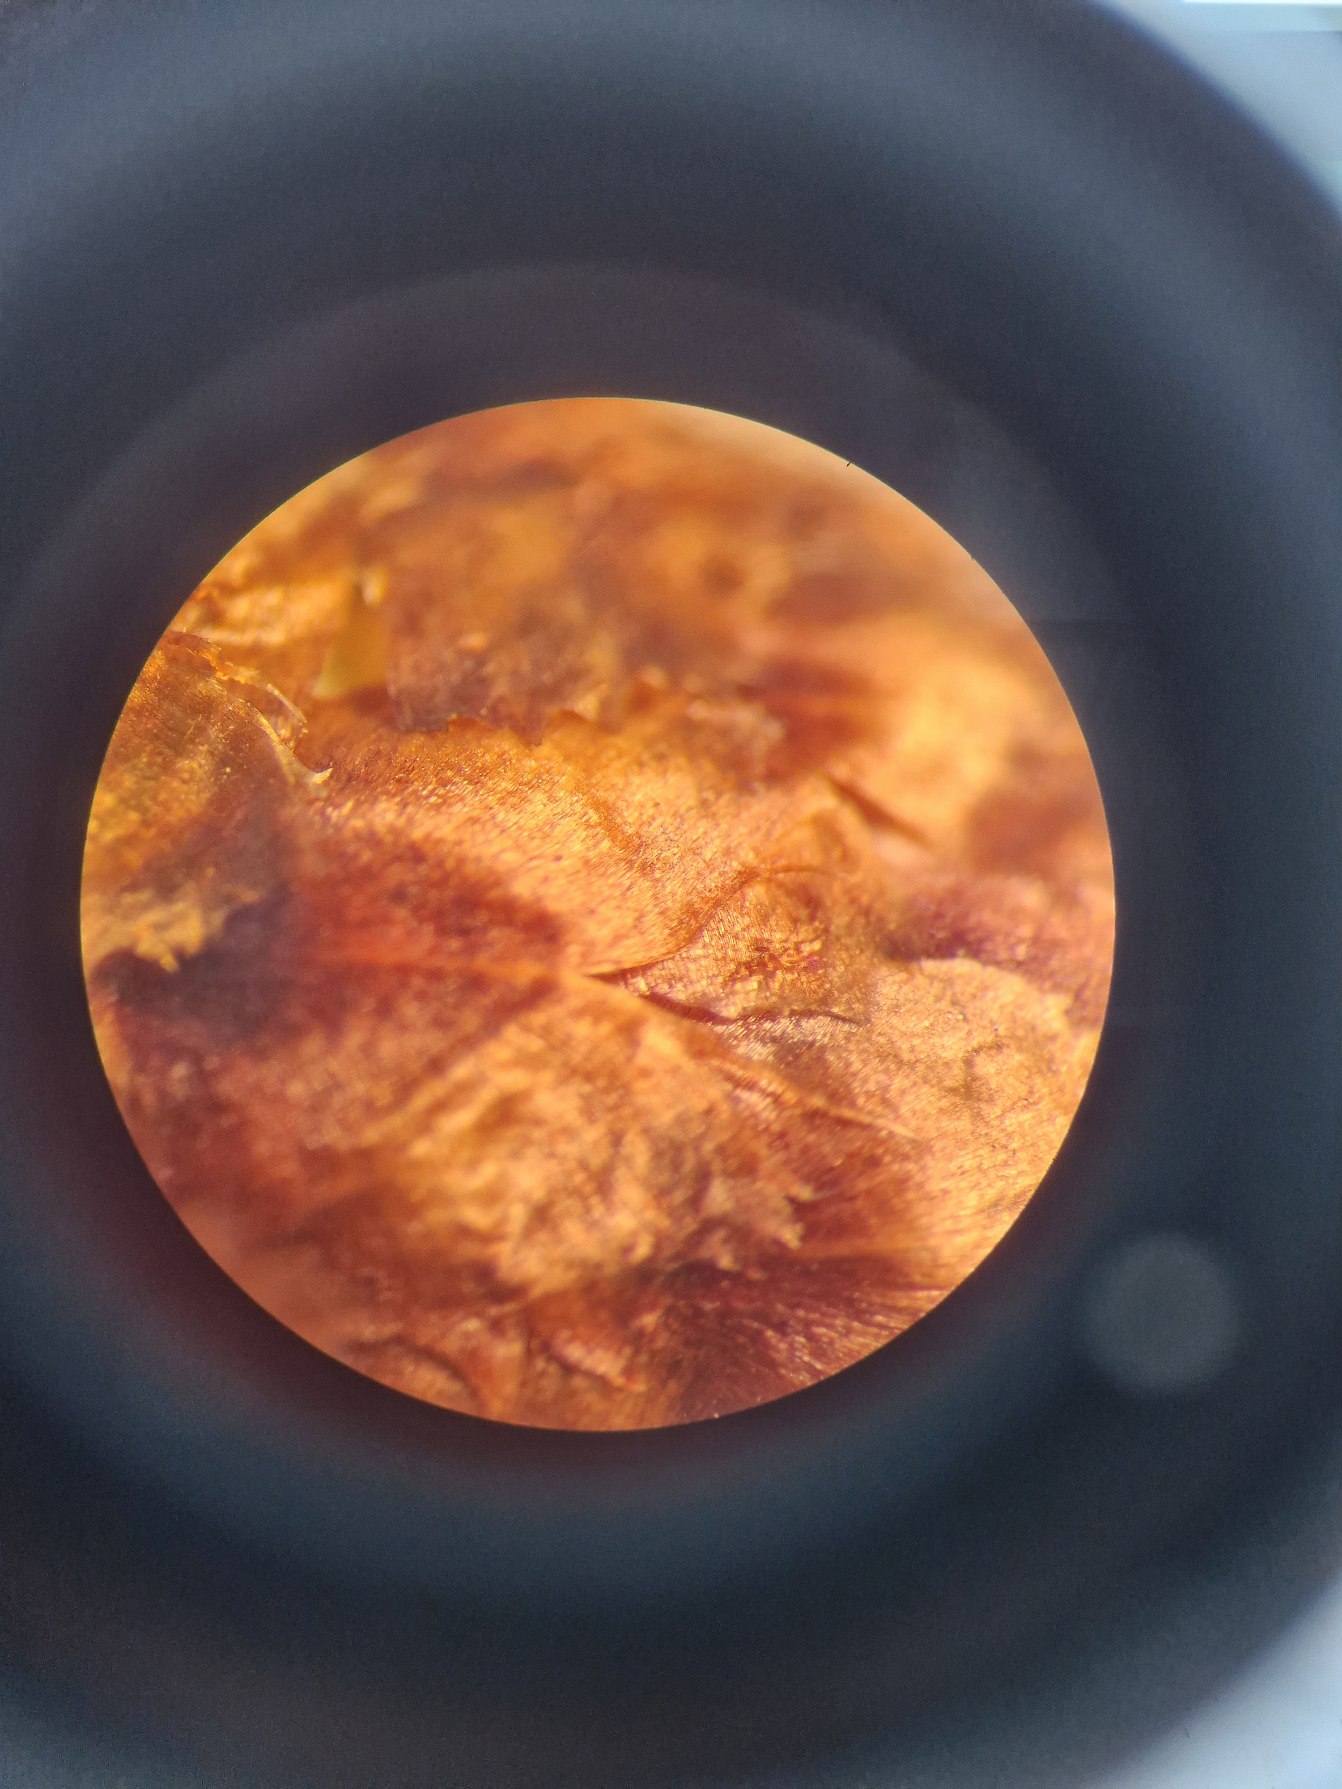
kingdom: Plantae
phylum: Tracheophyta
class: Magnoliopsida
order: Asterales
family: Asteraceae
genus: Centaurea
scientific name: Centaurea jacea
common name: Almindelig knopurt
